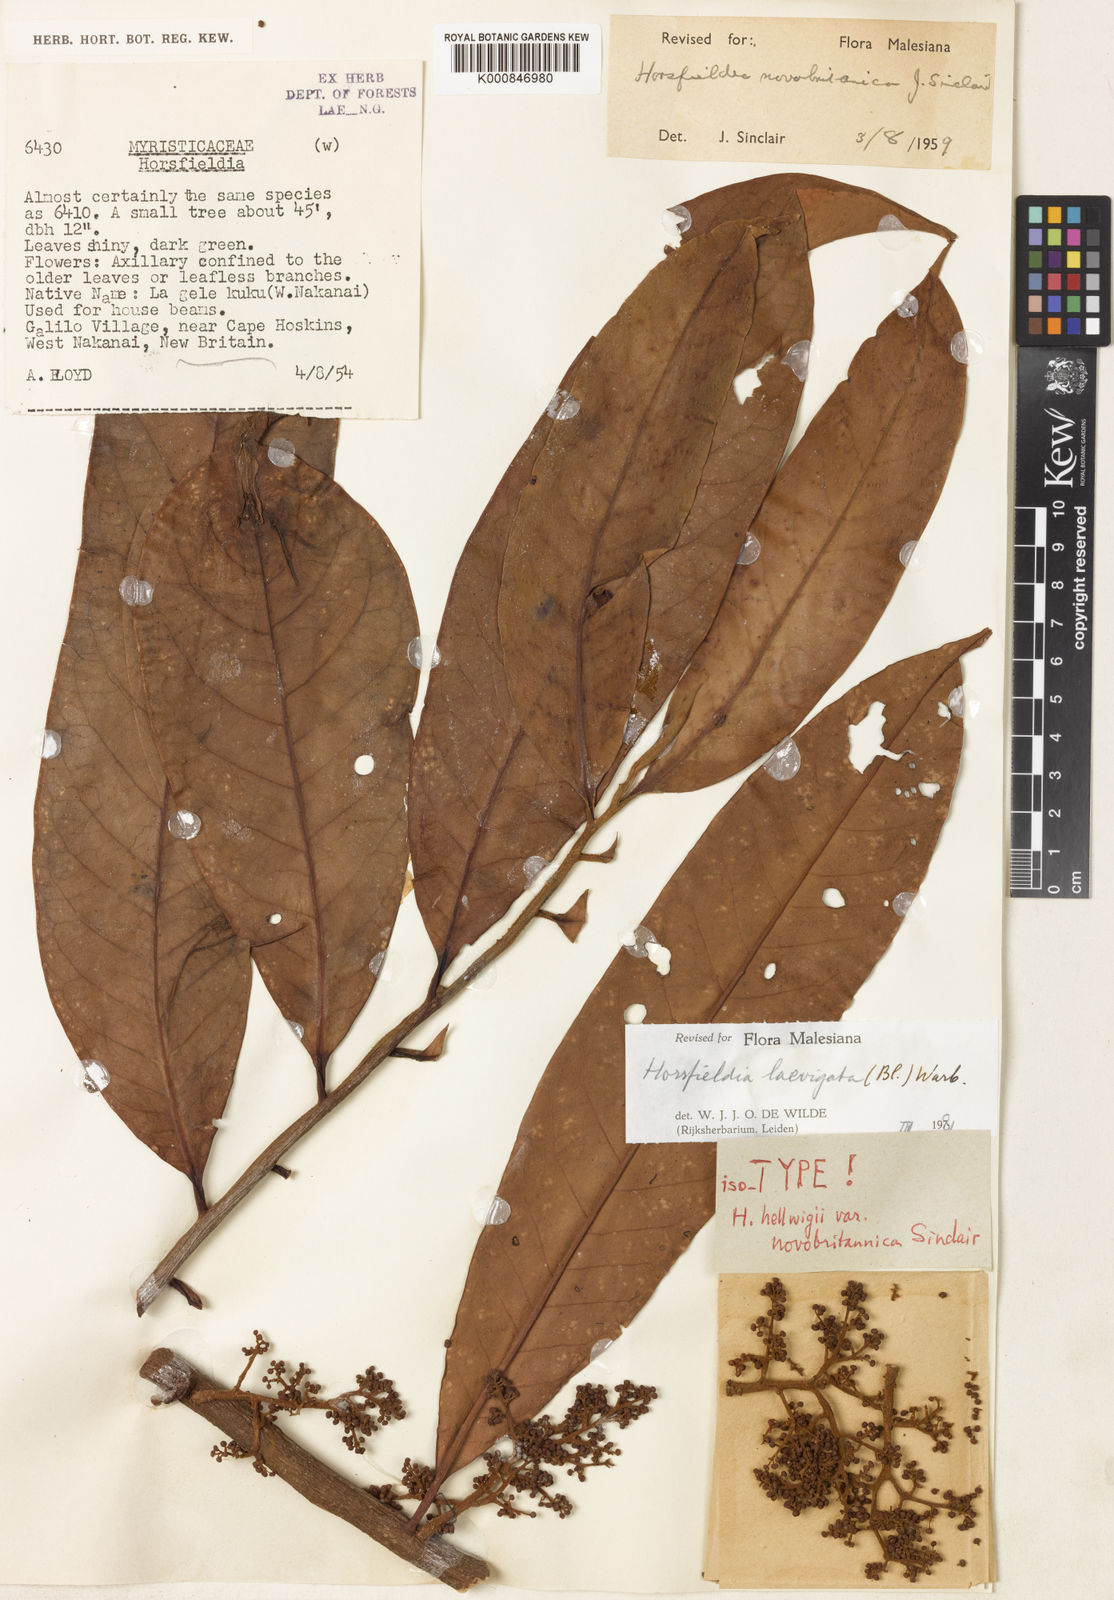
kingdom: Plantae
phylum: Tracheophyta
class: Magnoliopsida
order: Magnoliales
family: Myristicaceae
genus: Horsfieldia
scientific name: Horsfieldia laevigata
